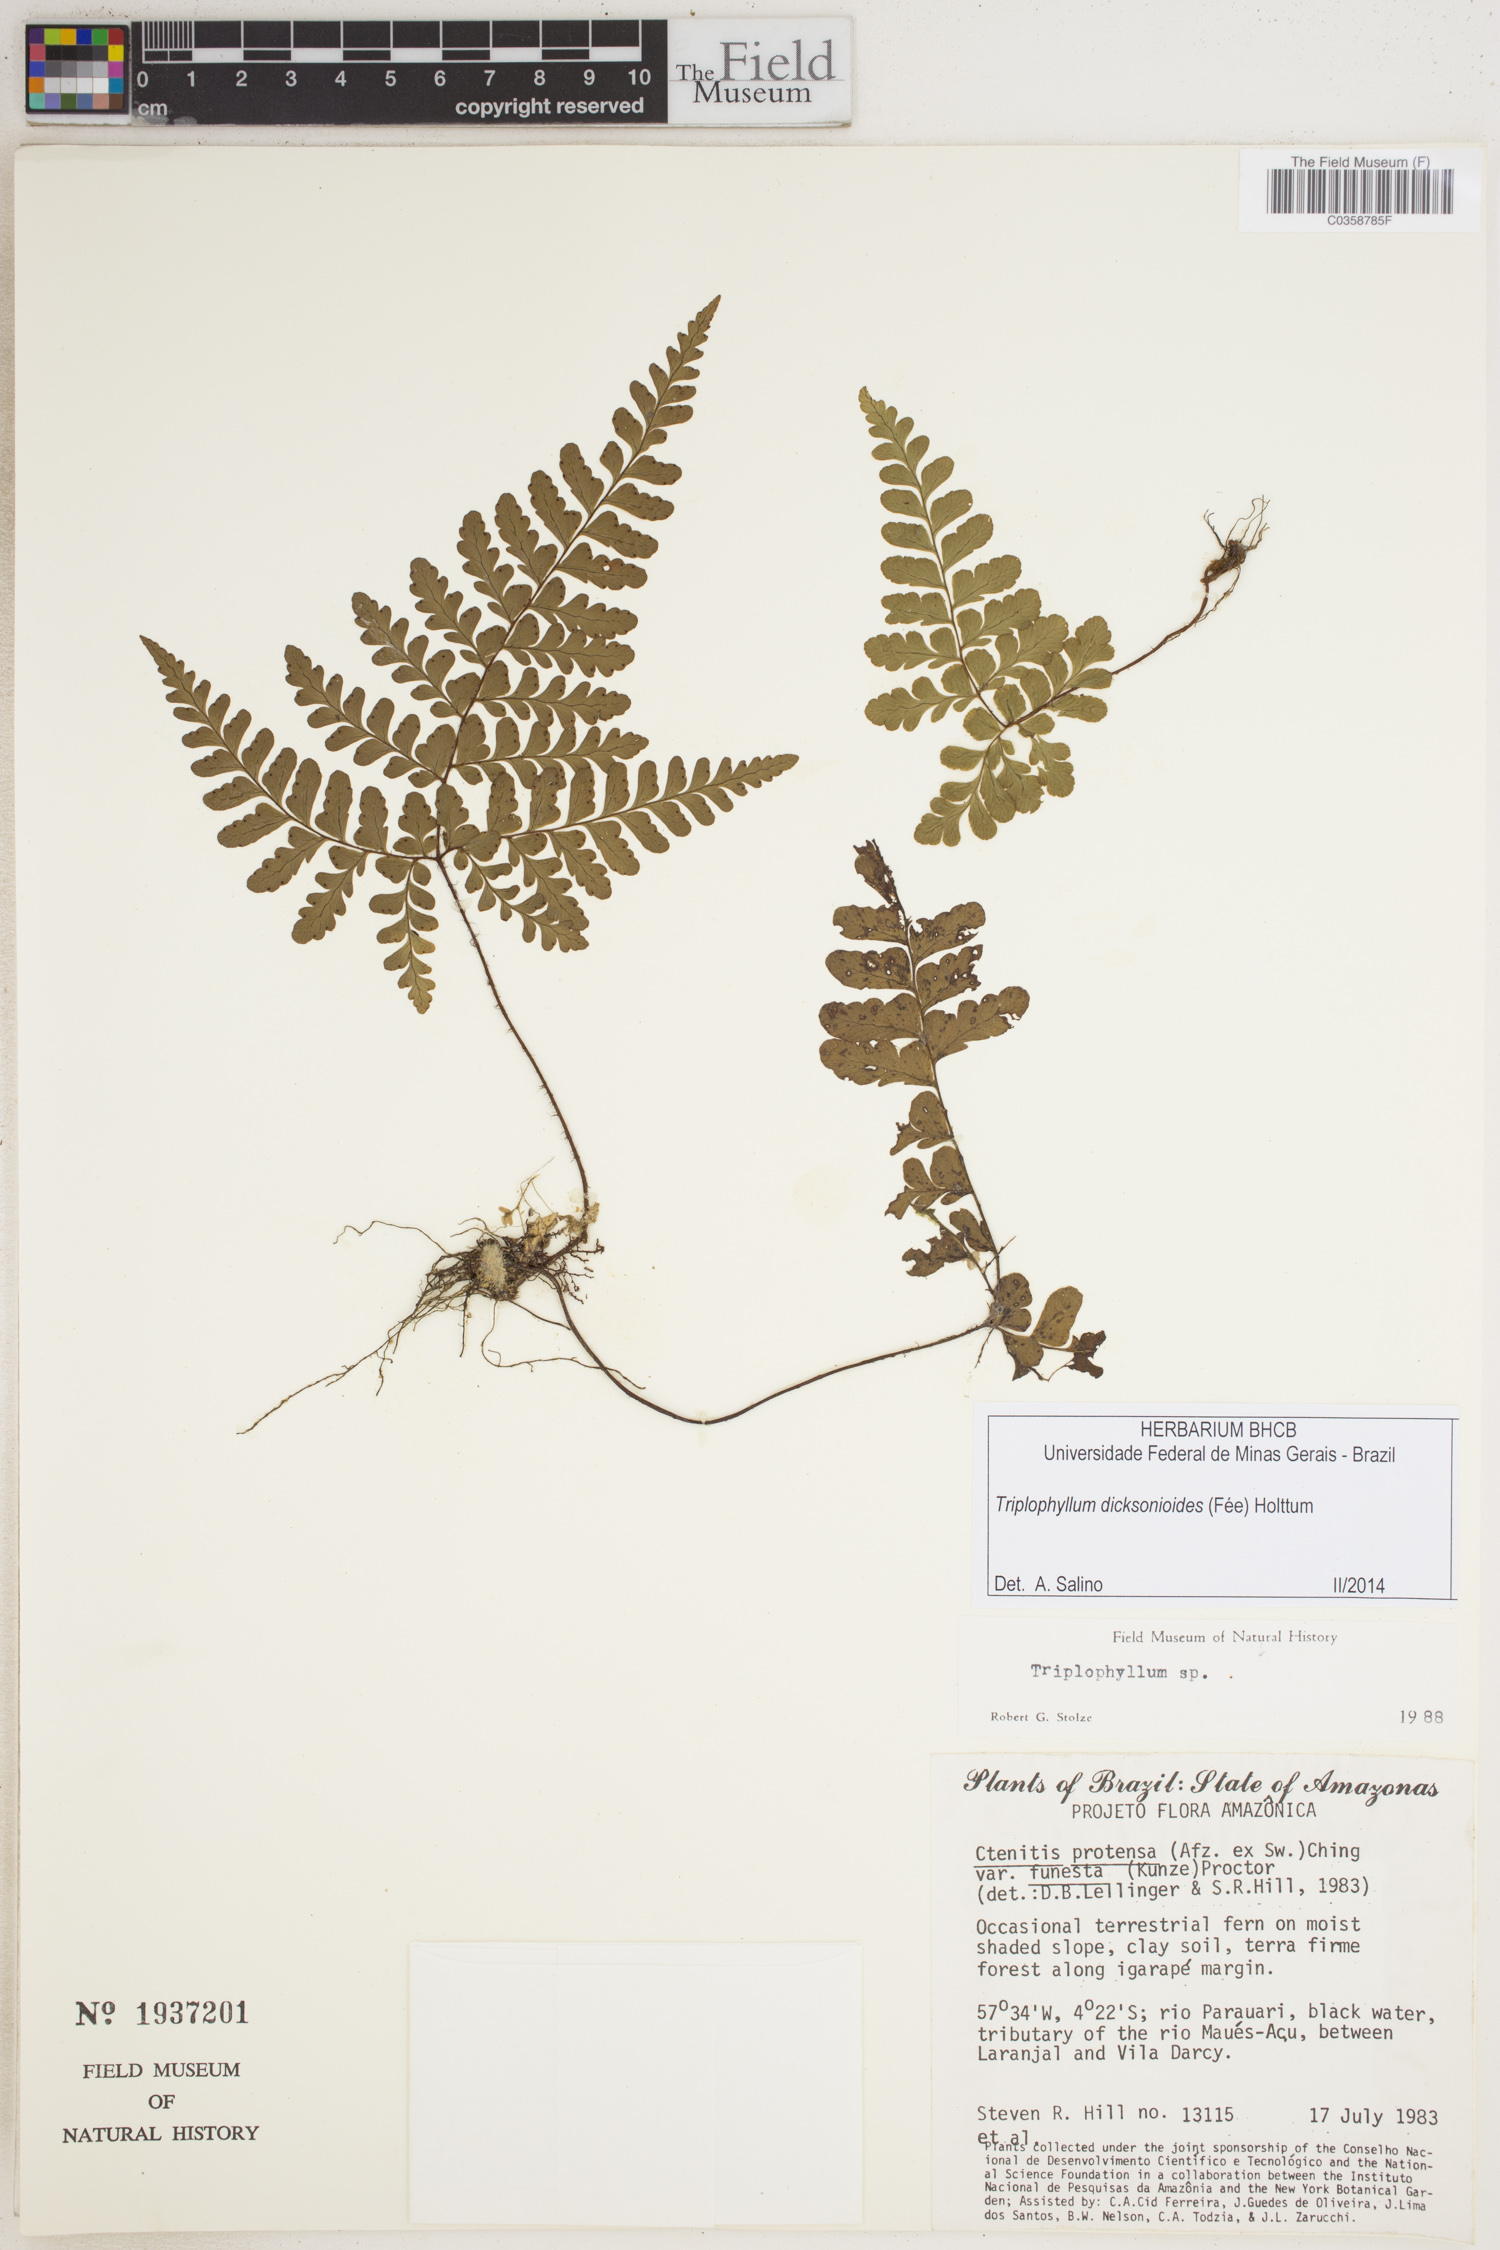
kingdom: Plantae
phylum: Tracheophyta
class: Polypodiopsida
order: Polypodiales
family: Tectariaceae
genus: Triplophyllum
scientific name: Triplophyllum dicksonioides
